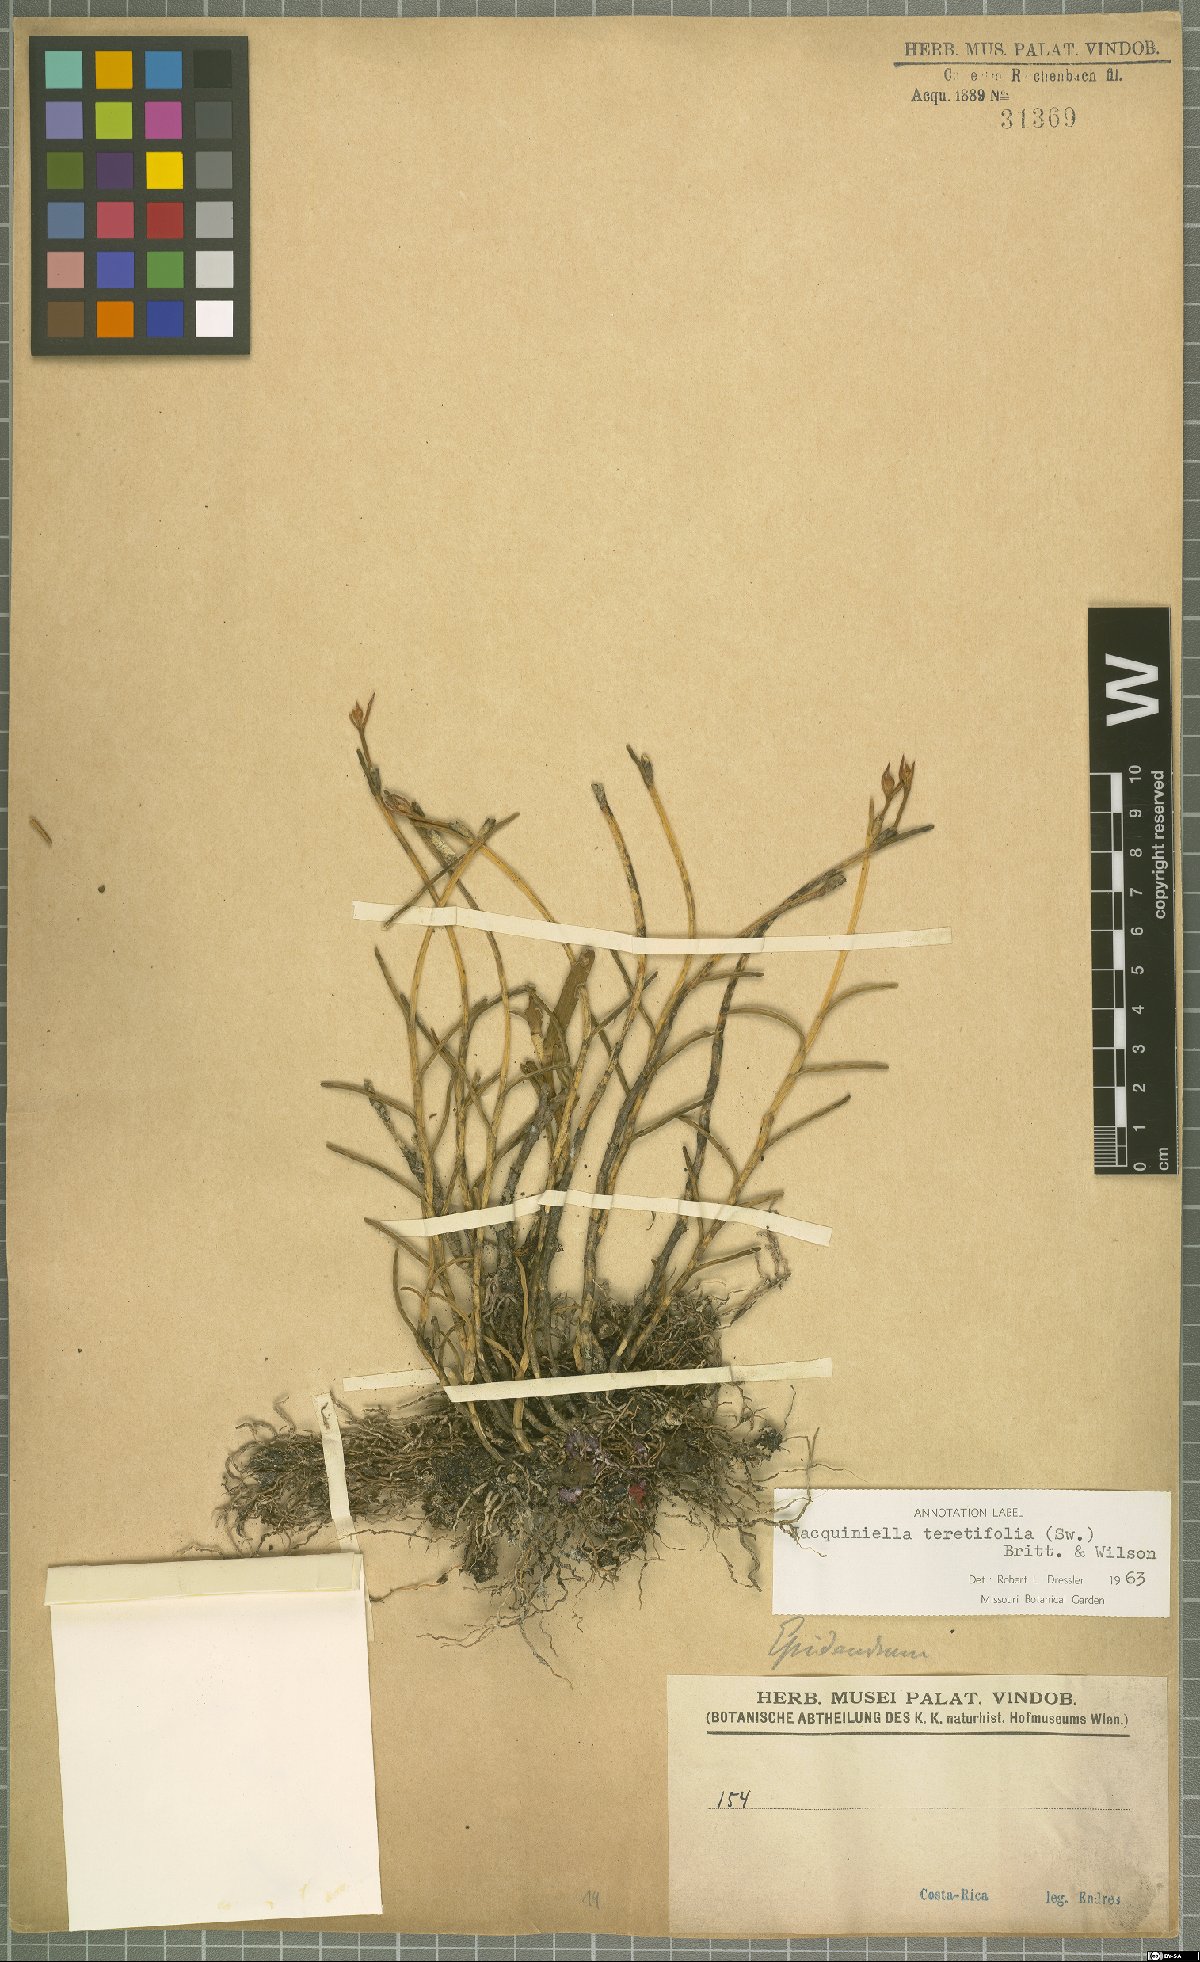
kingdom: Plantae
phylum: Tracheophyta
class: Liliopsida
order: Asparagales
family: Orchidaceae
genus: Jacquiniella
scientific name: Jacquiniella teretifolia
